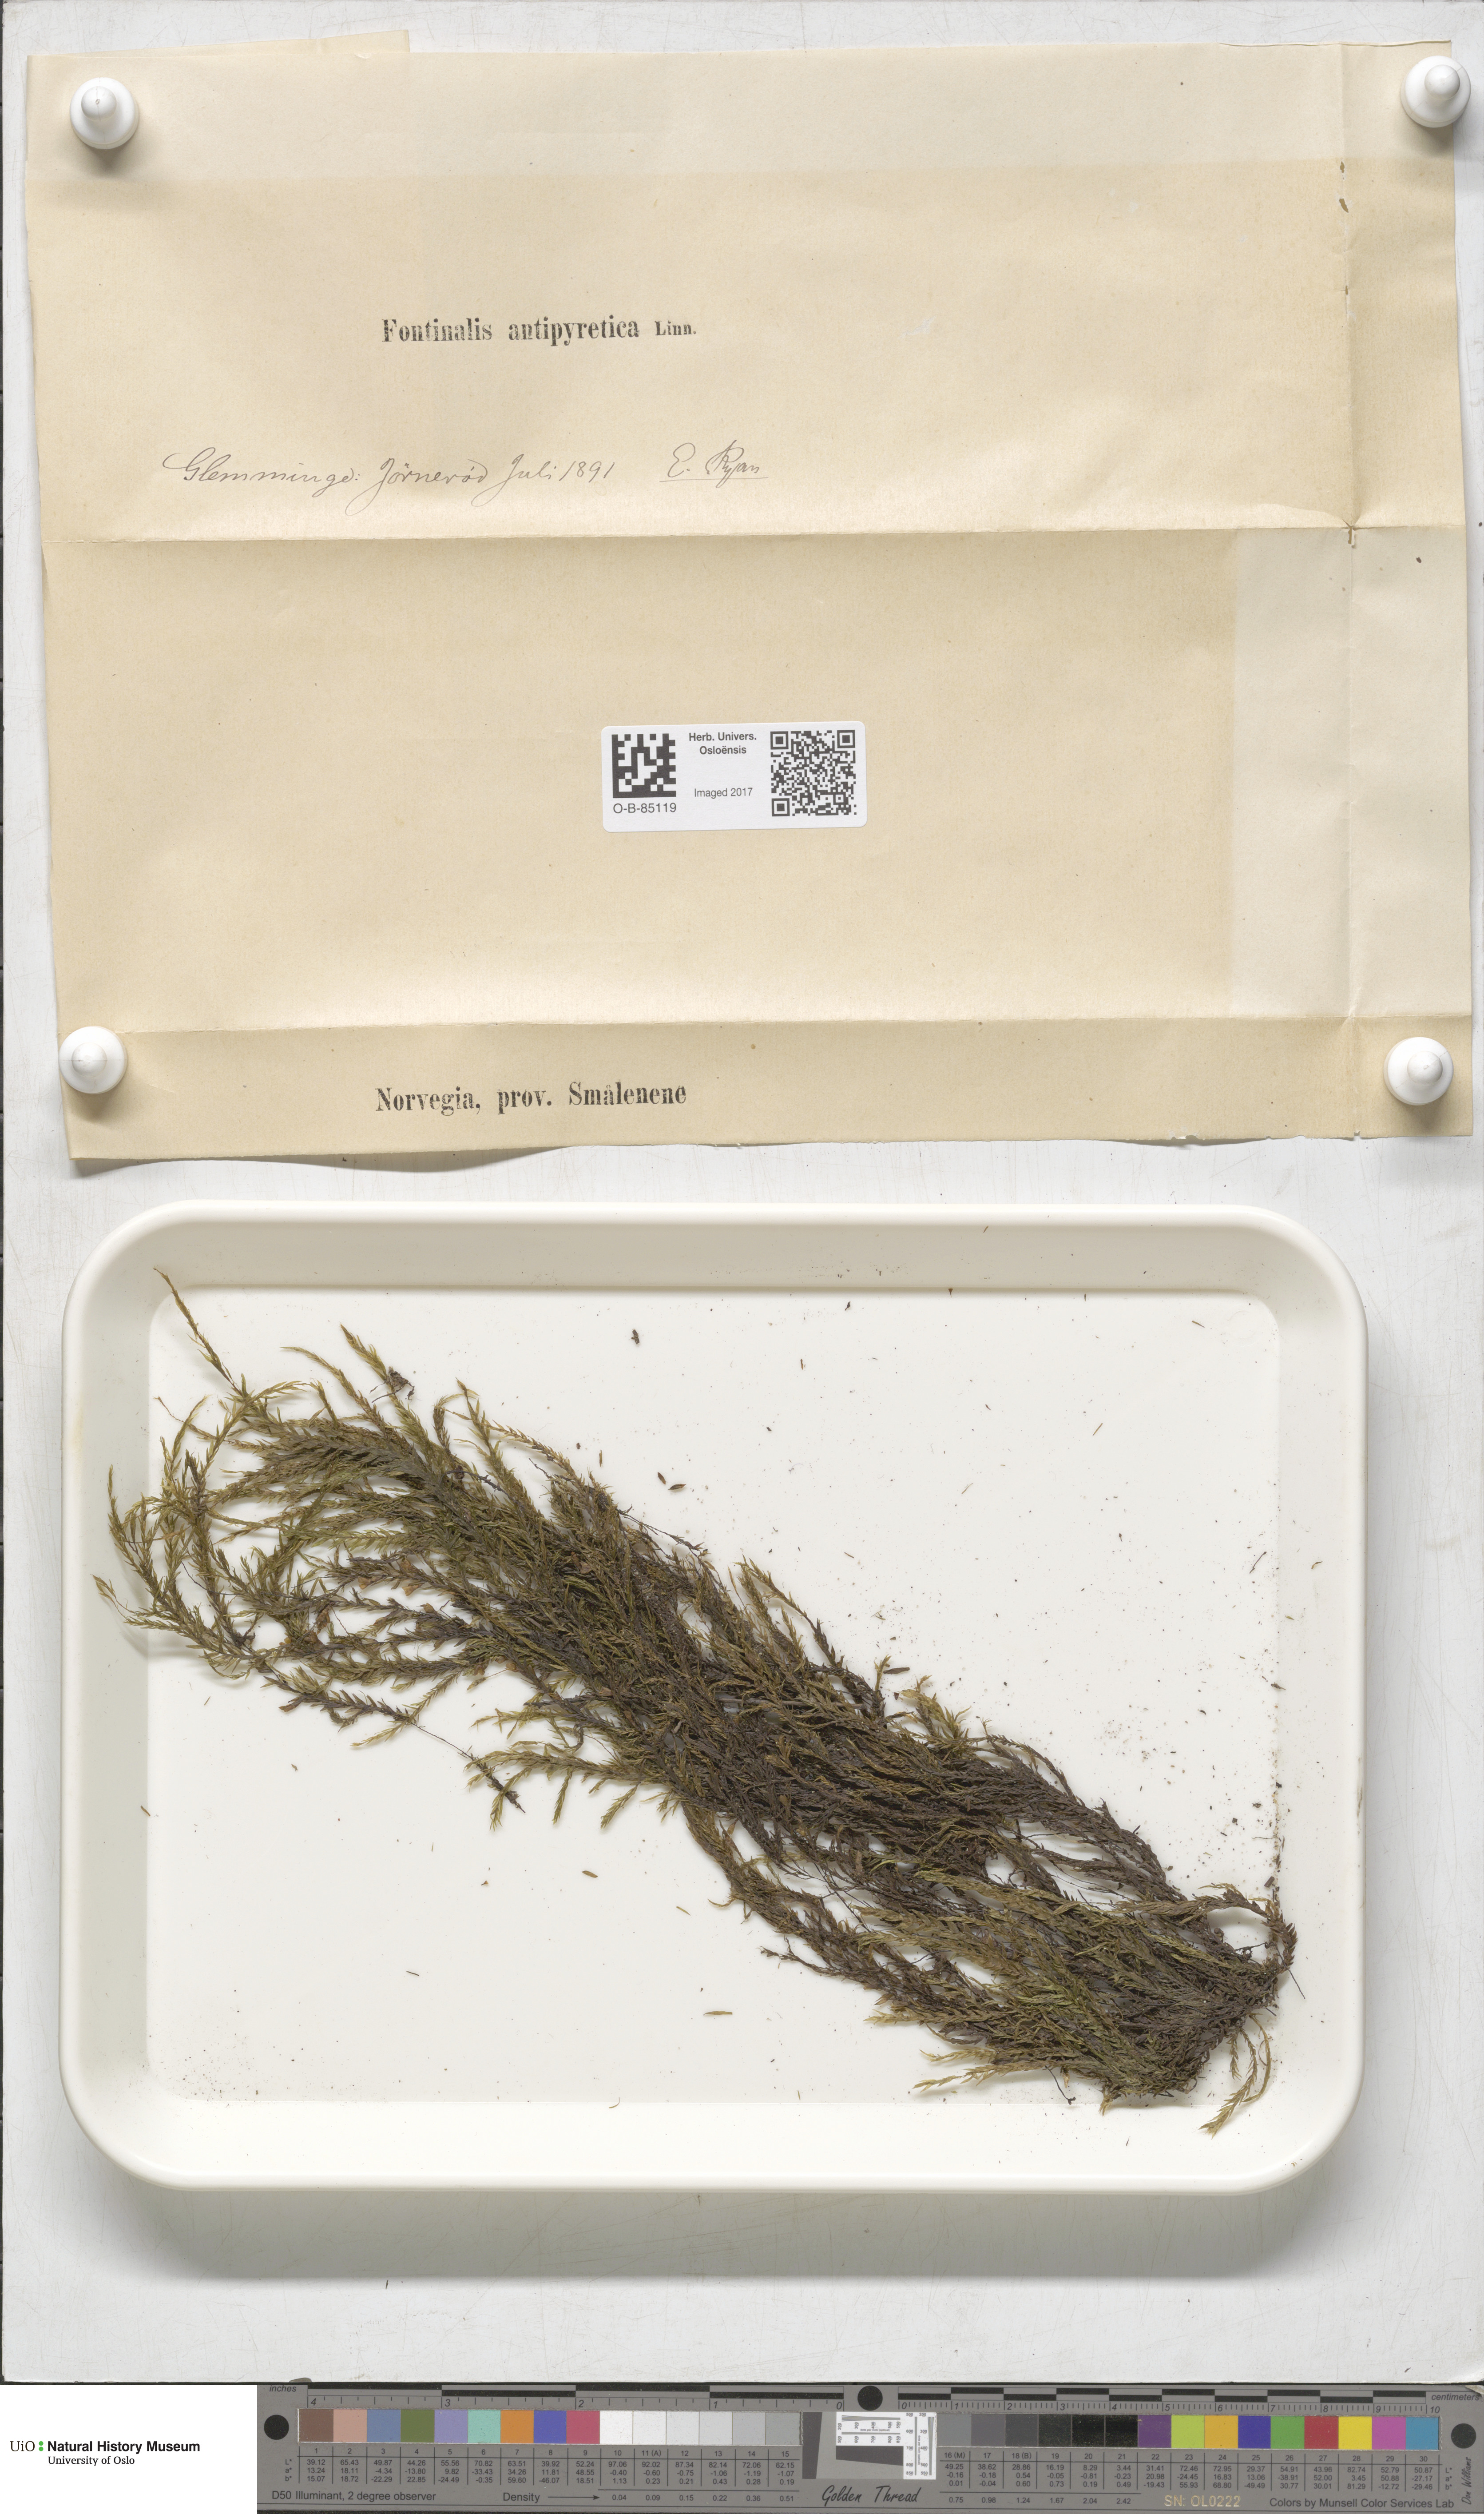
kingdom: Plantae
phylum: Bryophyta
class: Bryopsida
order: Hypnales
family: Fontinalaceae
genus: Fontinalis
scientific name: Fontinalis antipyretica
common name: Greater water-moss
